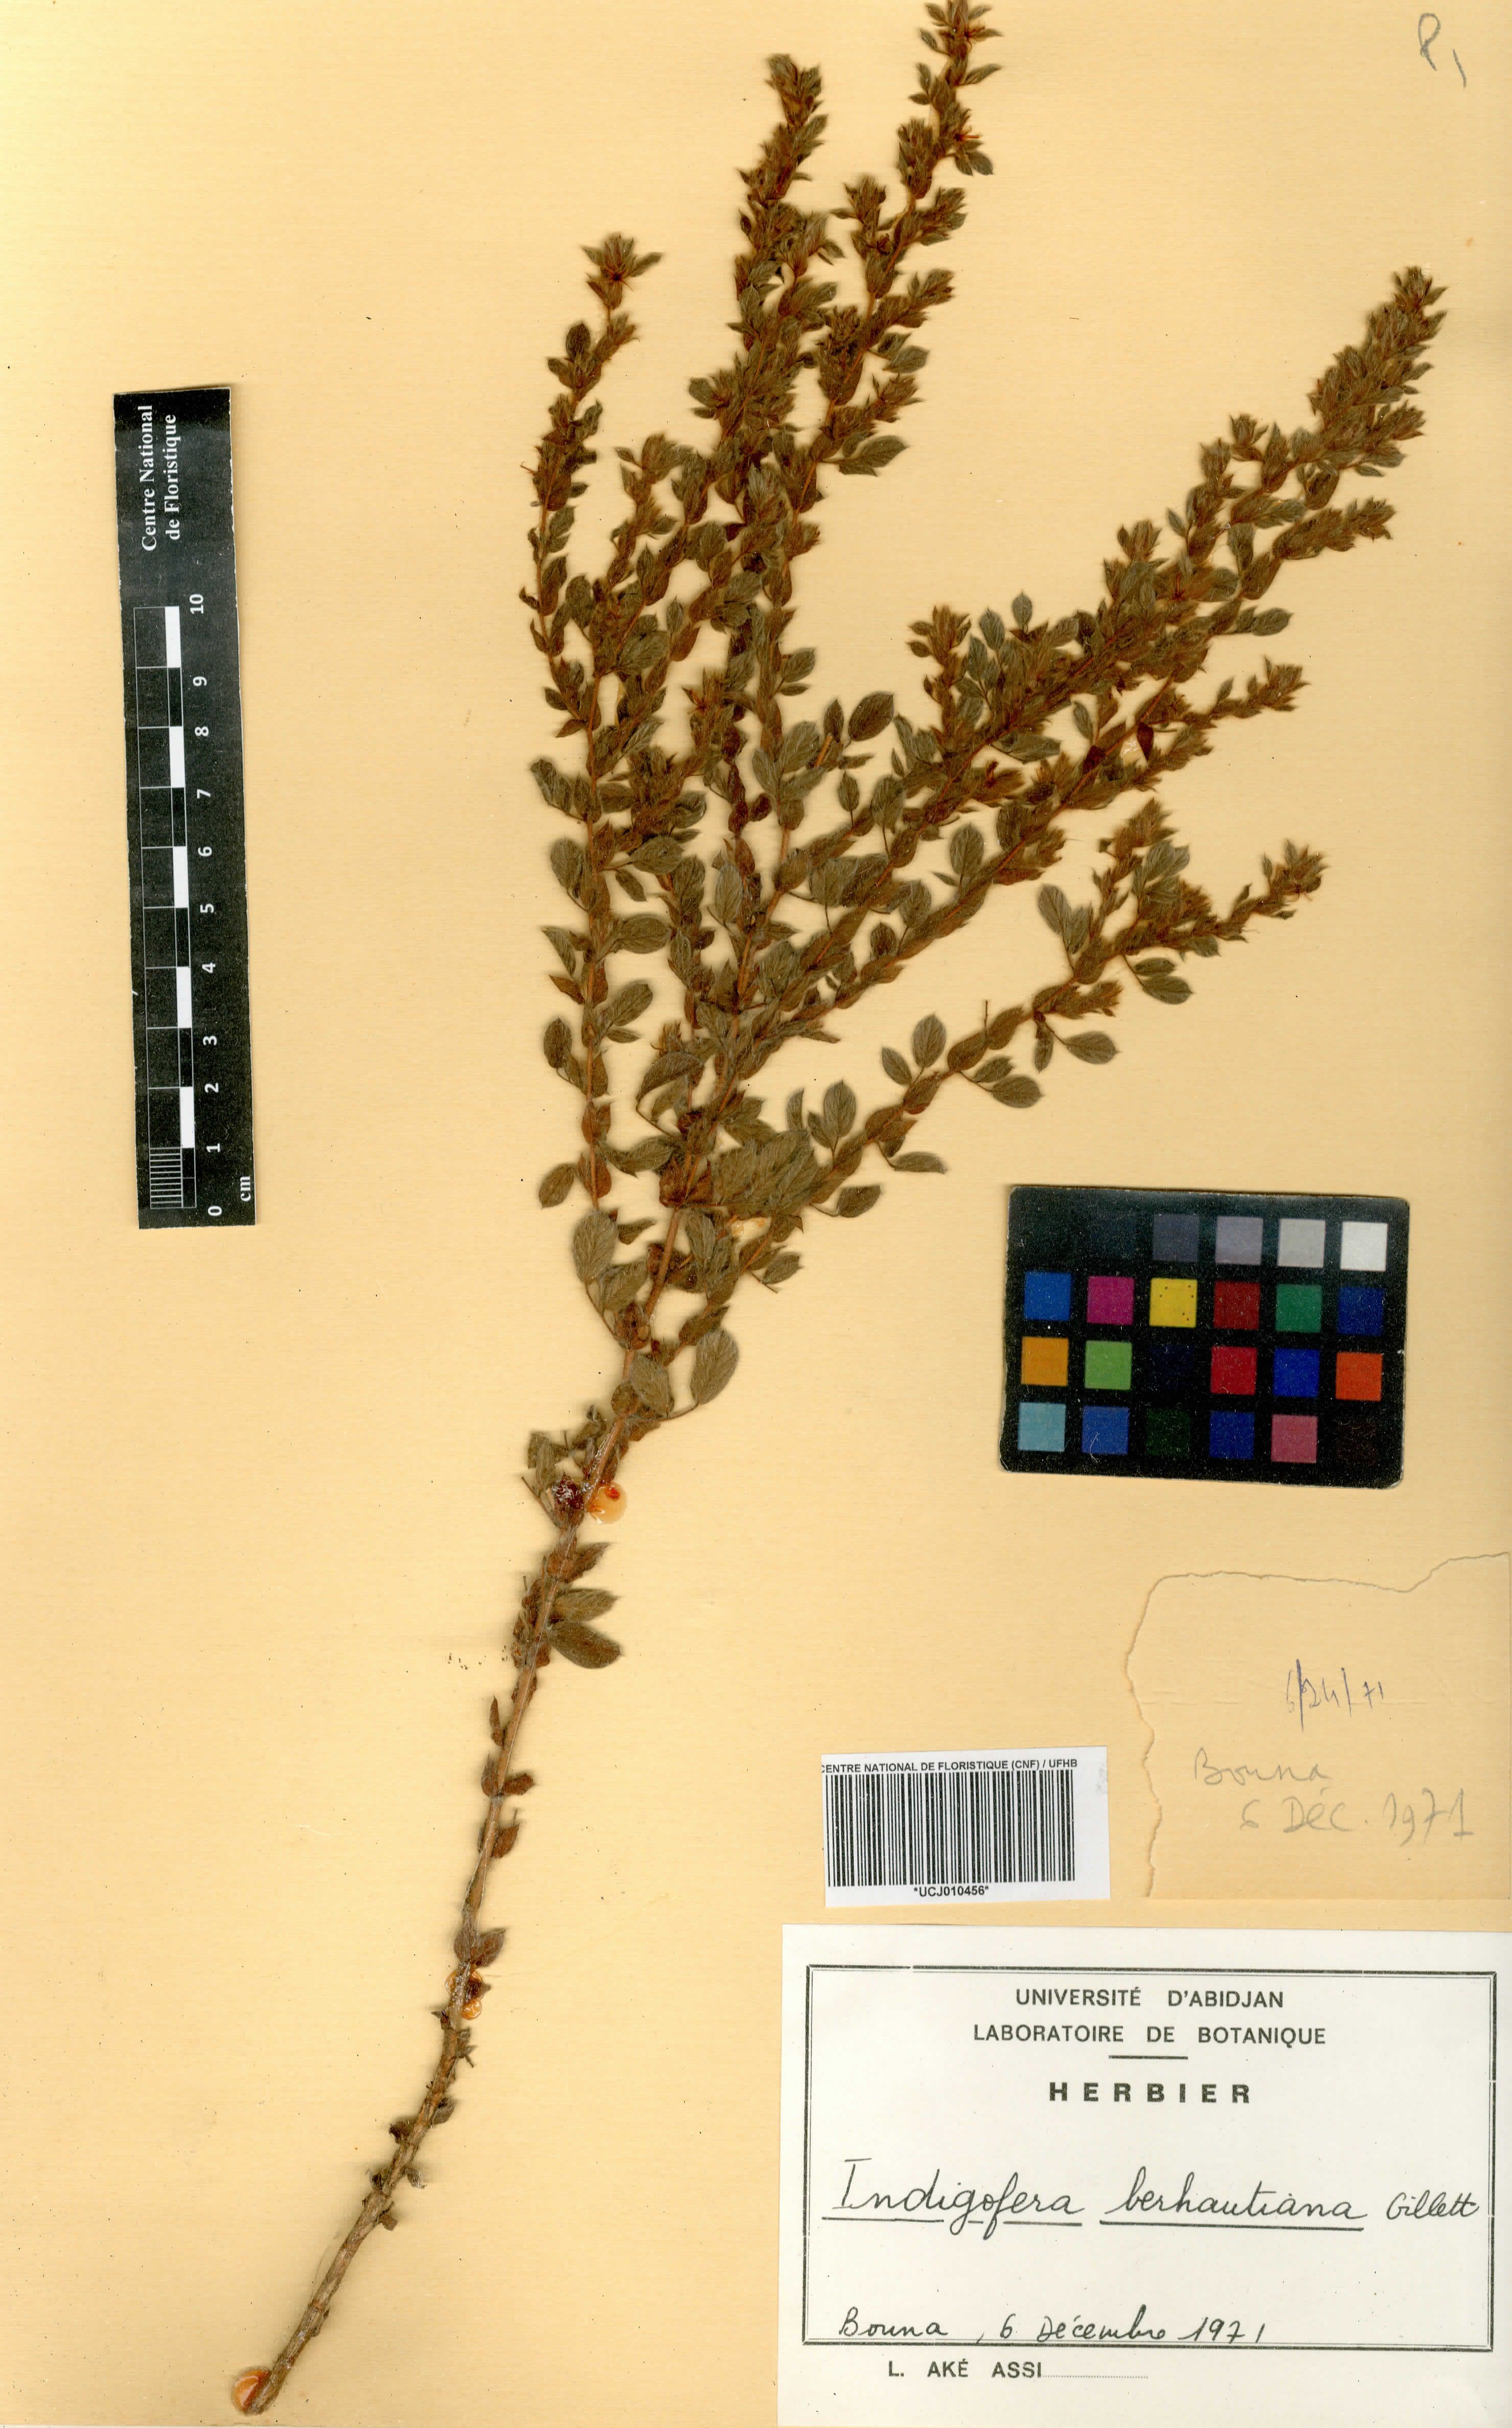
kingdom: Plantae
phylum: Tracheophyta
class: Magnoliopsida
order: Fabales
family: Fabaceae
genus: Indigofera
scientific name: Indigofera berhautiana
